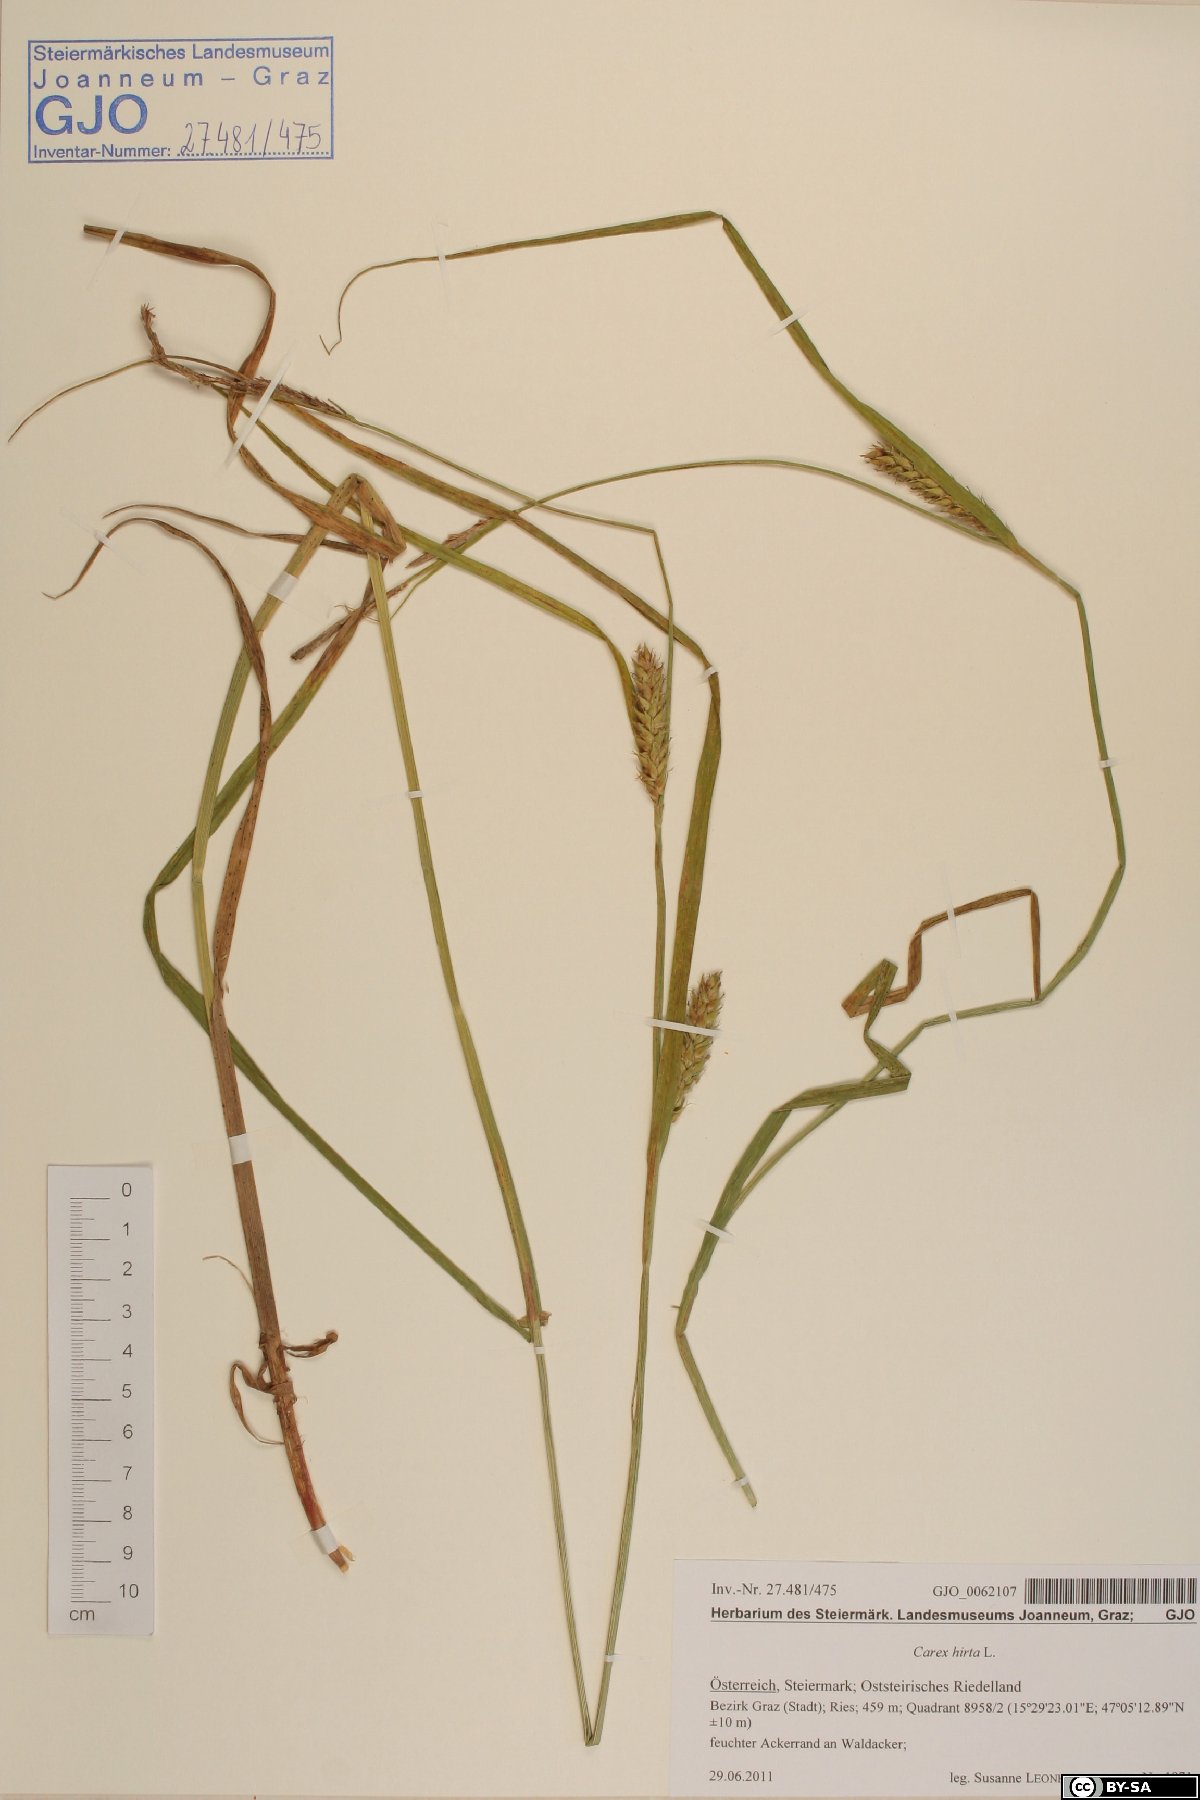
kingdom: Plantae
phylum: Tracheophyta
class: Liliopsida
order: Poales
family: Cyperaceae
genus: Carex
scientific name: Carex hirta
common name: Hairy sedge
